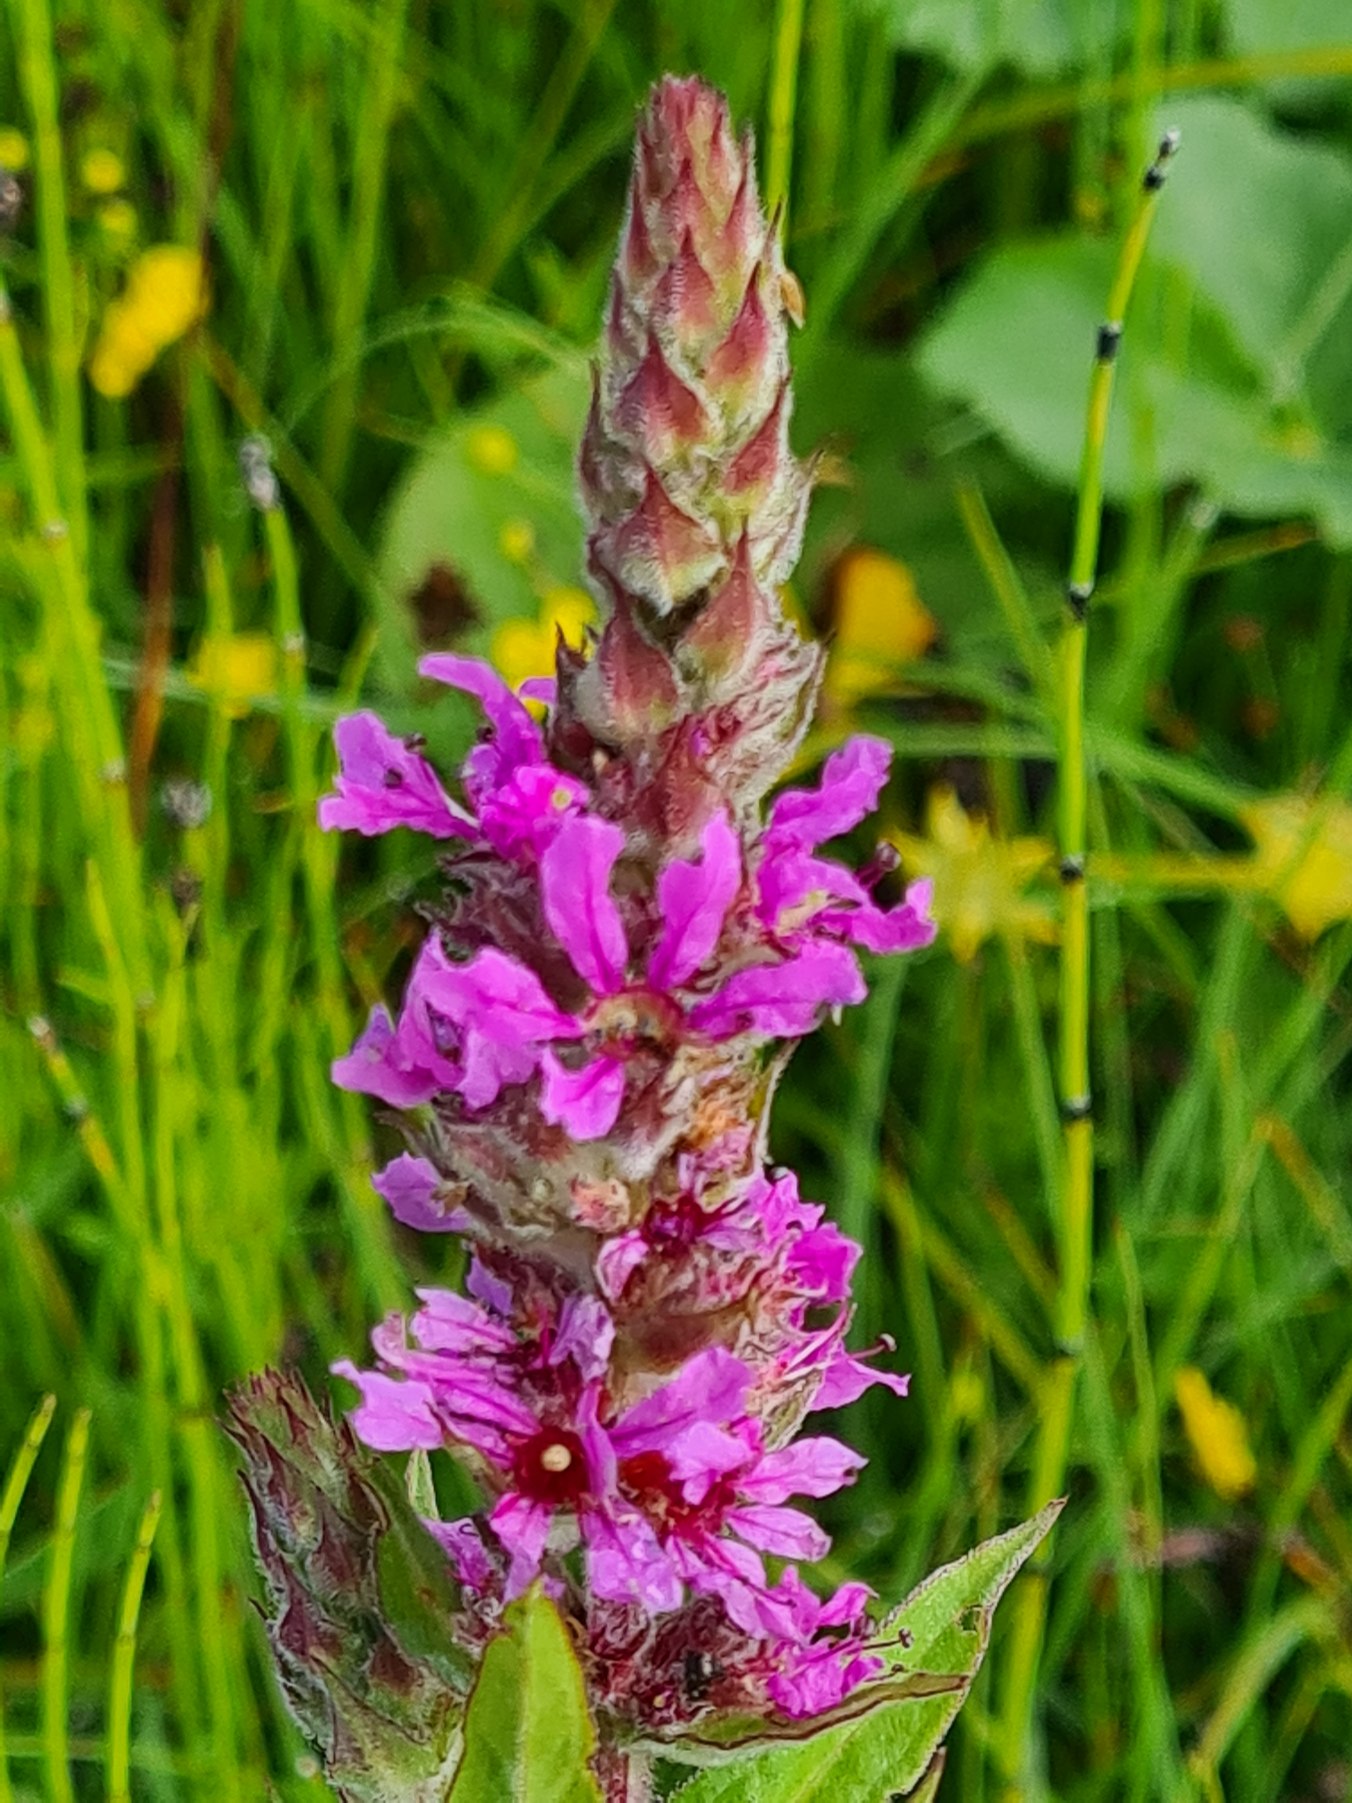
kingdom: Plantae
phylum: Tracheophyta
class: Magnoliopsida
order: Myrtales
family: Lythraceae
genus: Lythrum
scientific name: Lythrum salicaria
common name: Kattehale
